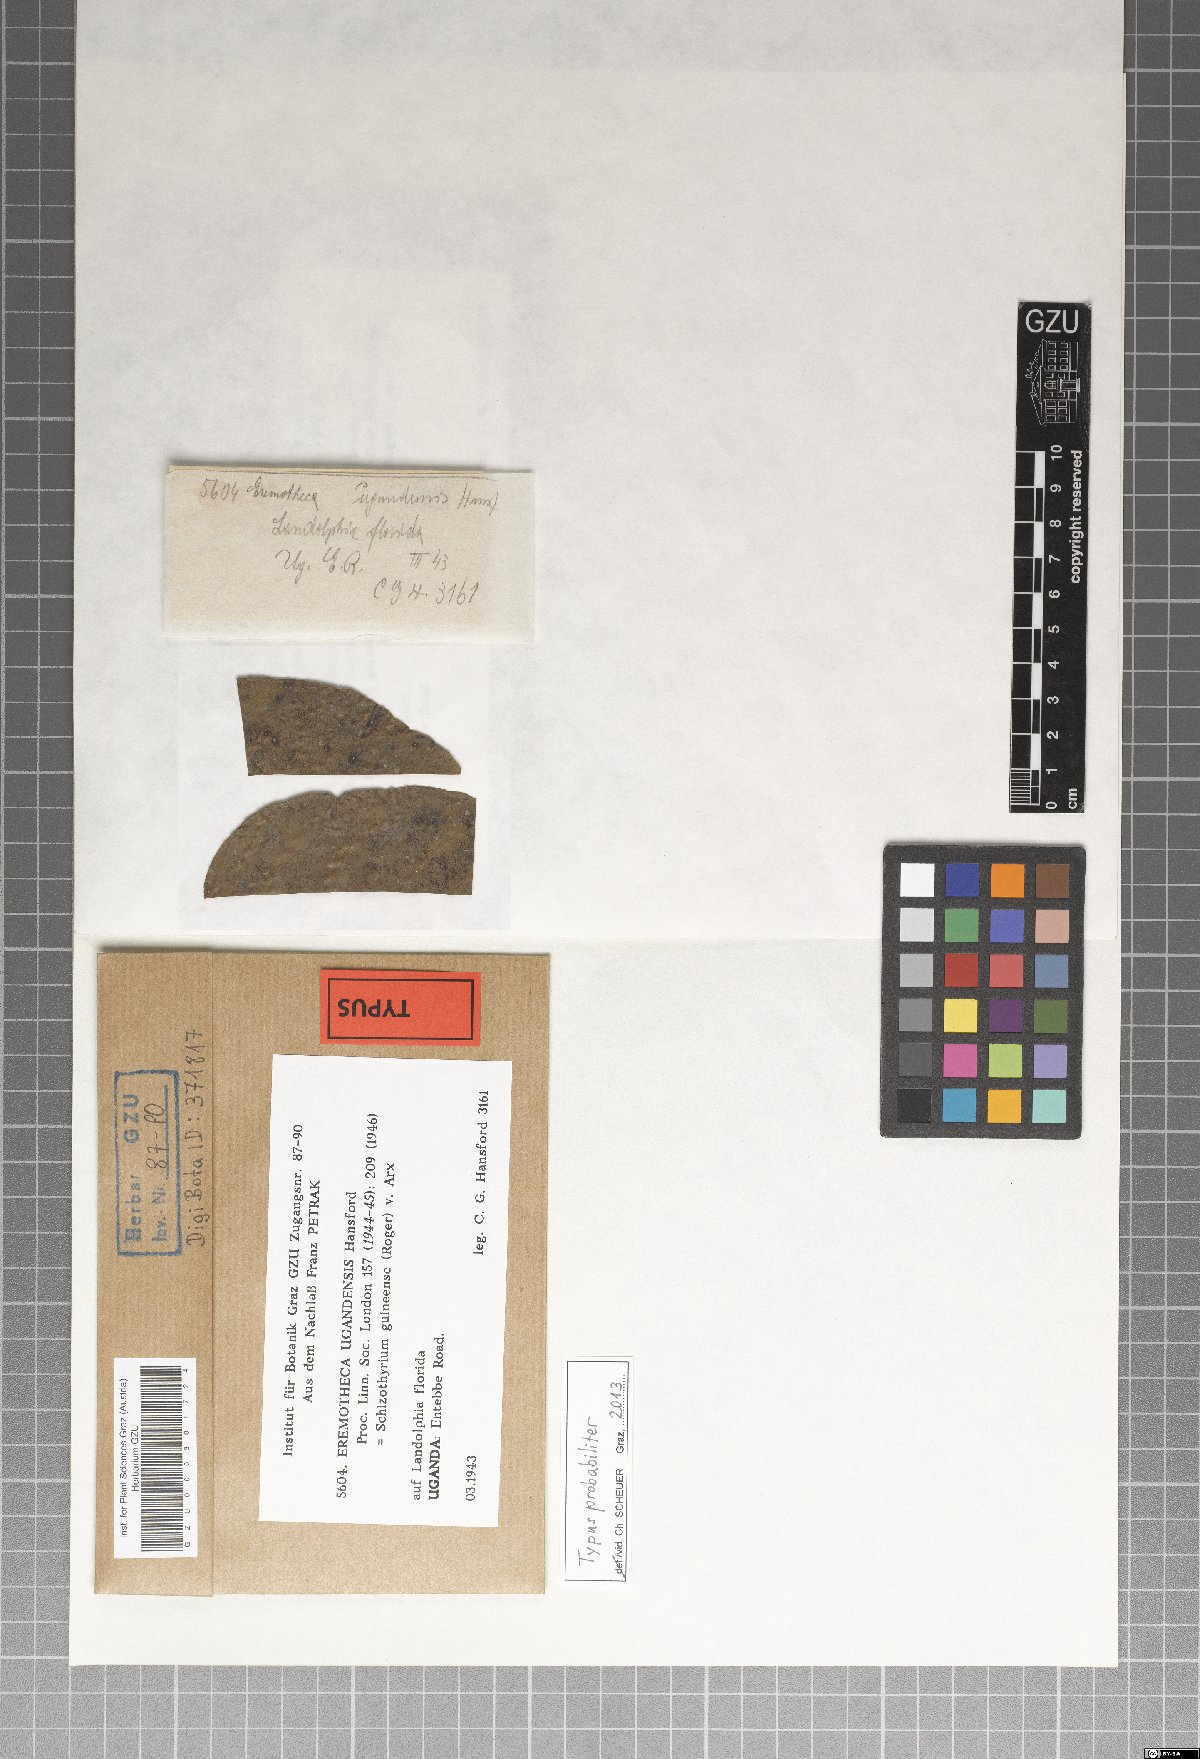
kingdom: Fungi
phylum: Ascomycota
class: Dothideomycetes
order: Mycosphaerellales
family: Schizothyriaceae
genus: Eremotheca
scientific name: Eremotheca ugandensis
